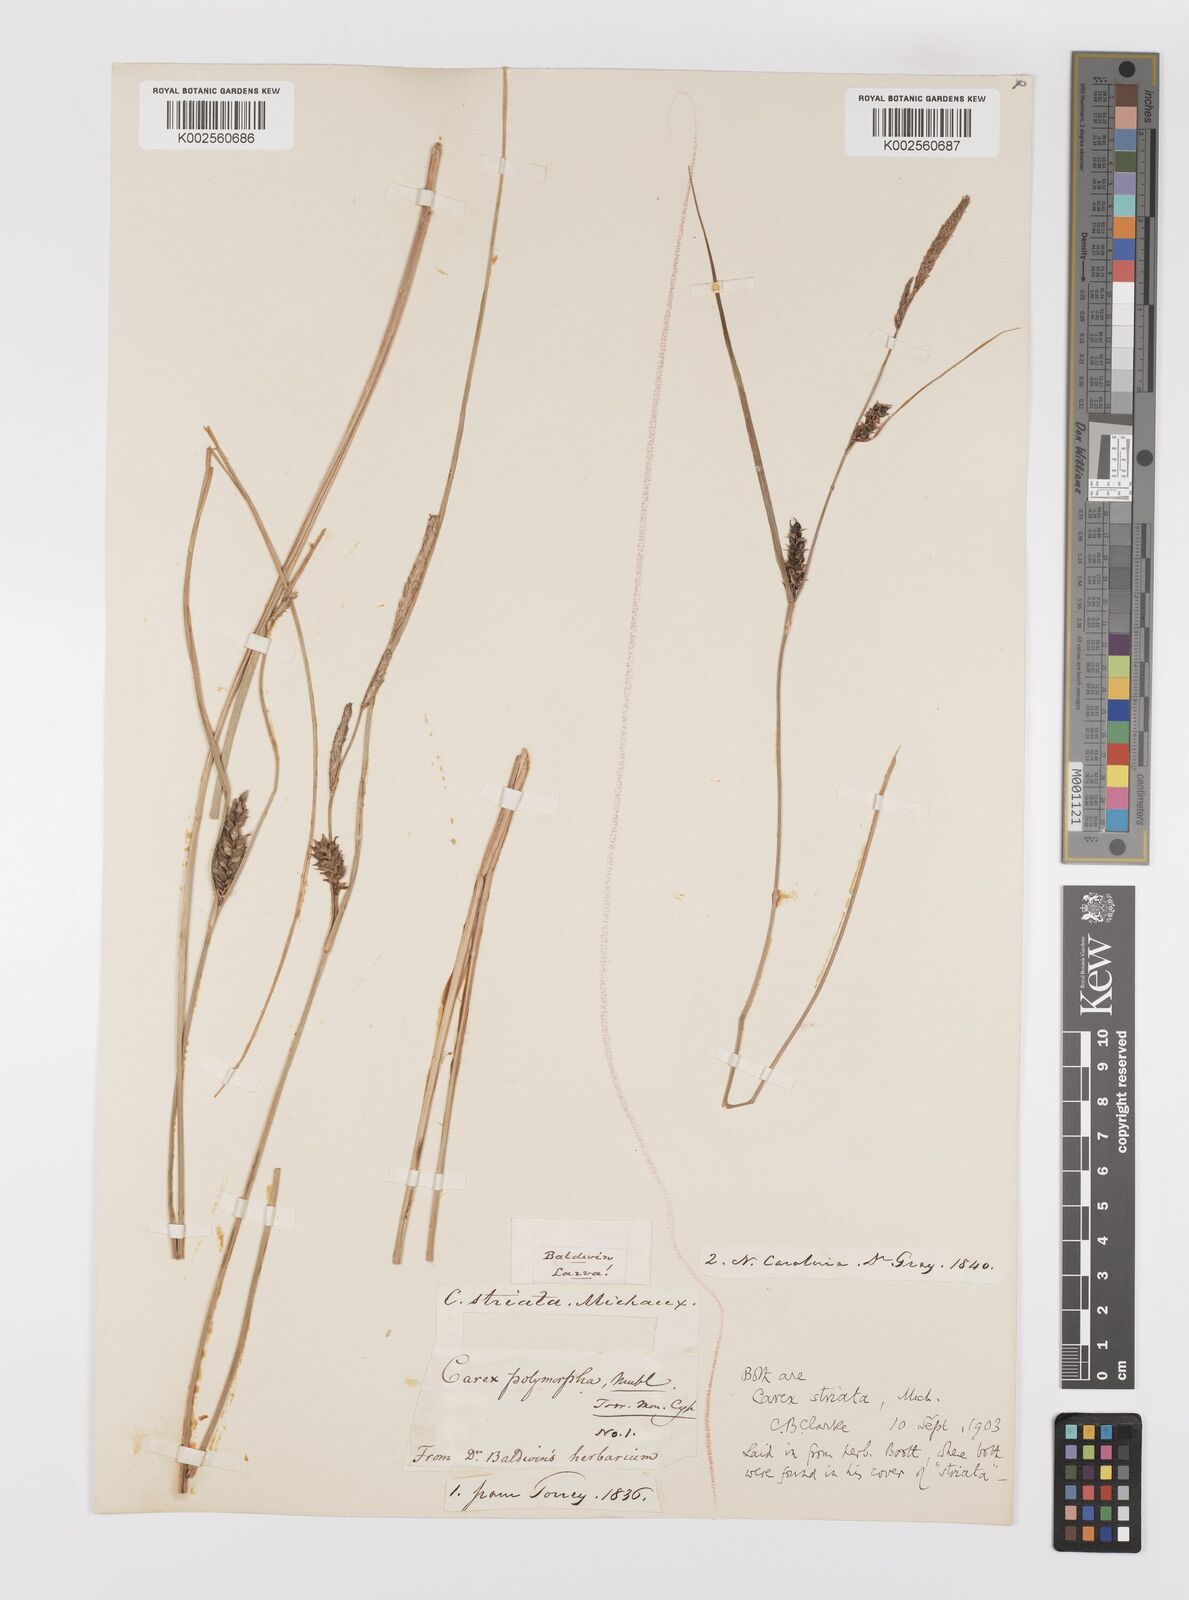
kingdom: Plantae
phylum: Tracheophyta
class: Liliopsida
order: Poales
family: Cyperaceae
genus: Carex
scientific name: Carex striata
